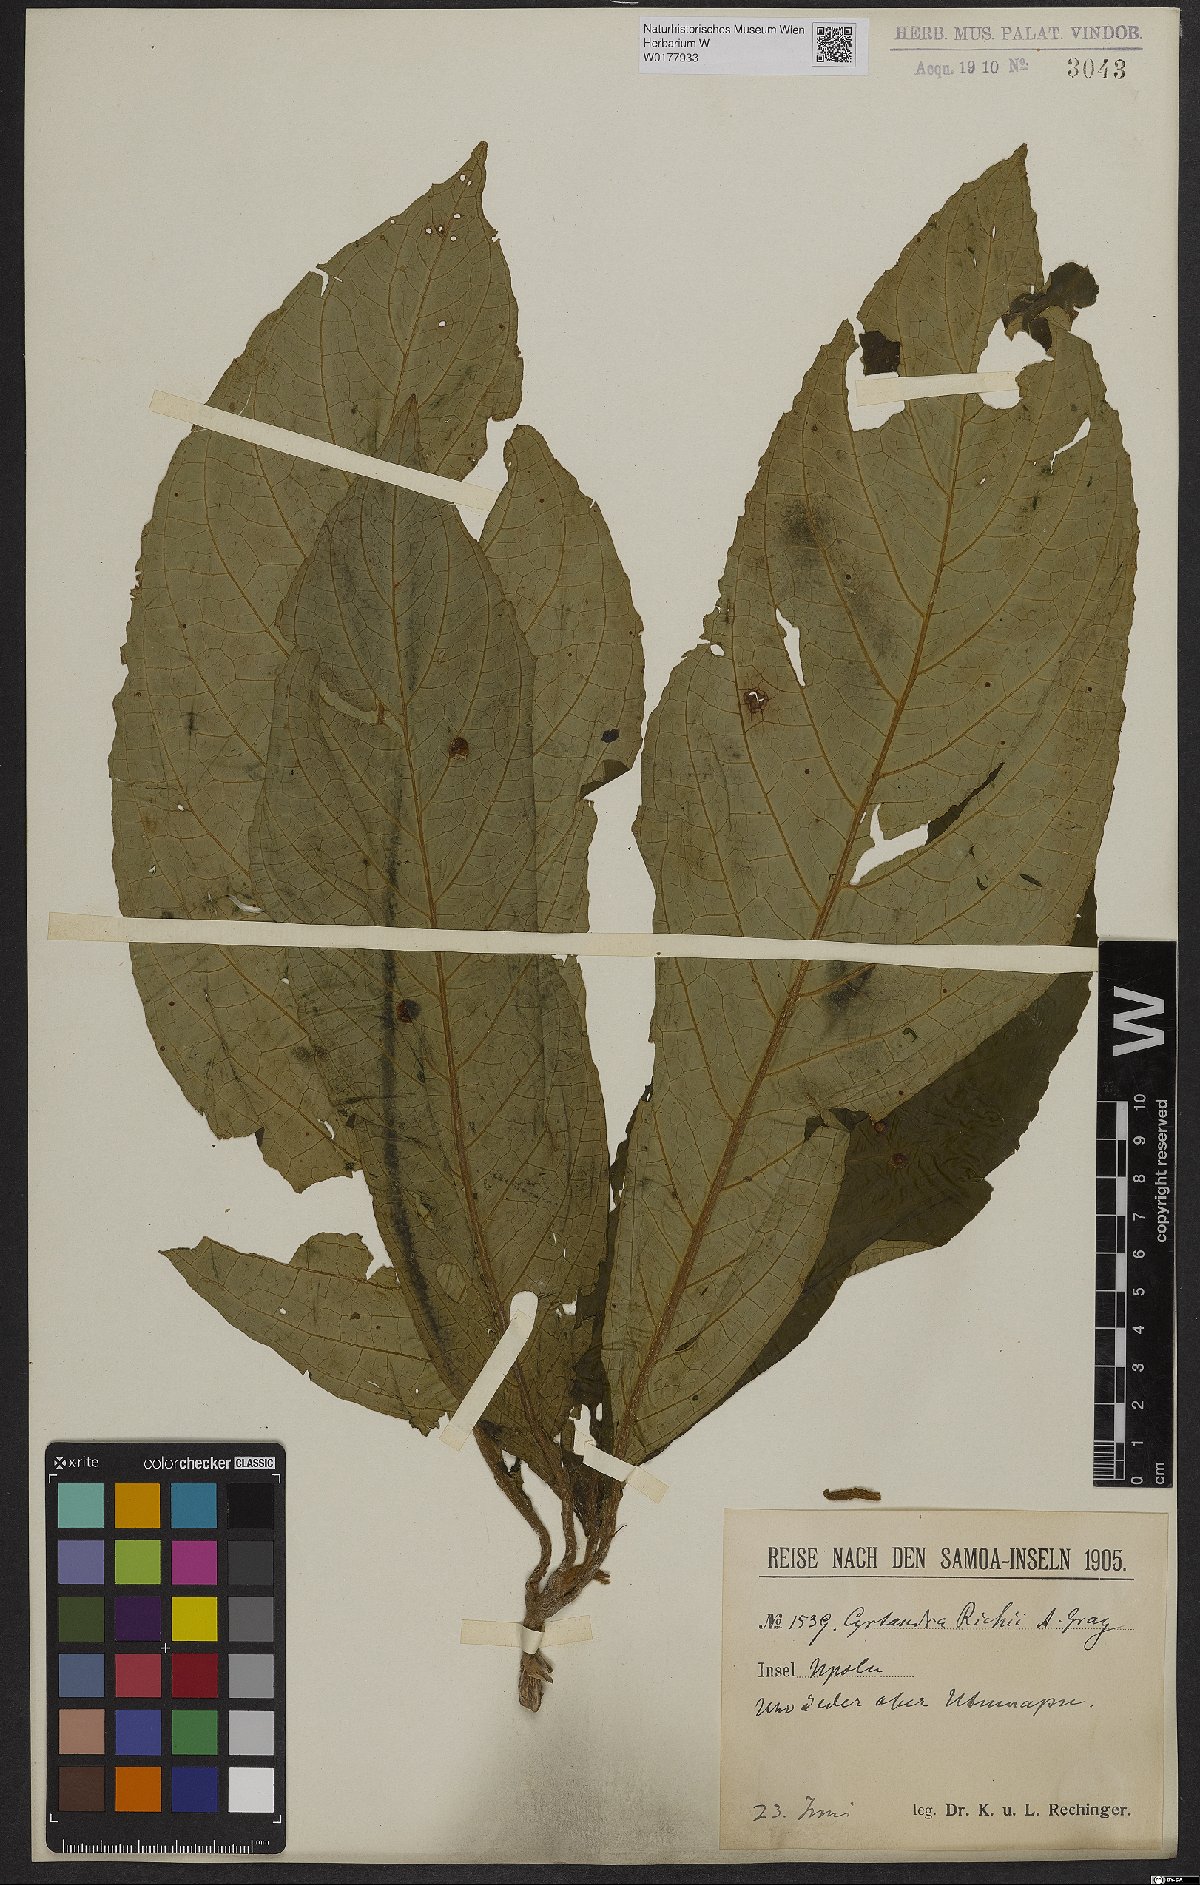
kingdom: Plantae
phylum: Tracheophyta
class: Magnoliopsida
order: Lamiales
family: Gesneriaceae
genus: Cyrtandra
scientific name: Cyrtandra richii
